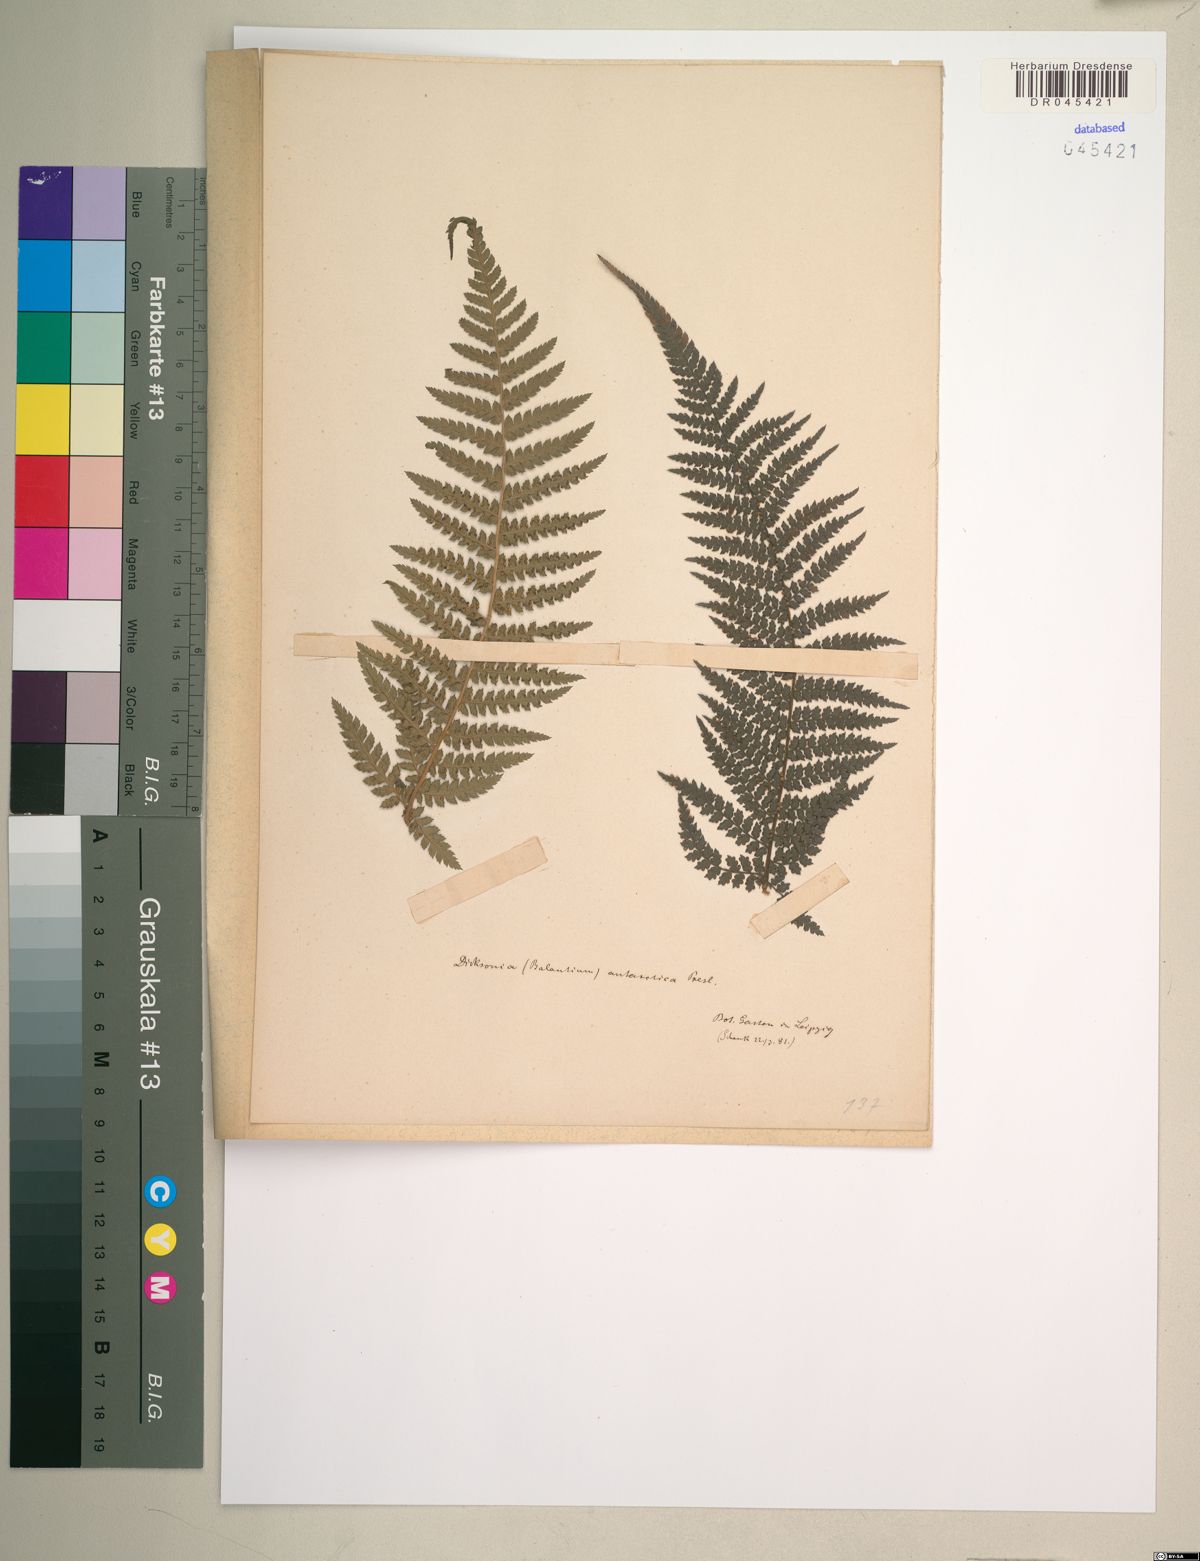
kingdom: Plantae
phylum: Tracheophyta
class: Polypodiopsida
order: Cyatheales
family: Dicksoniaceae
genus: Dicksonia
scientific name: Dicksonia antarctica
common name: Australian treefern
